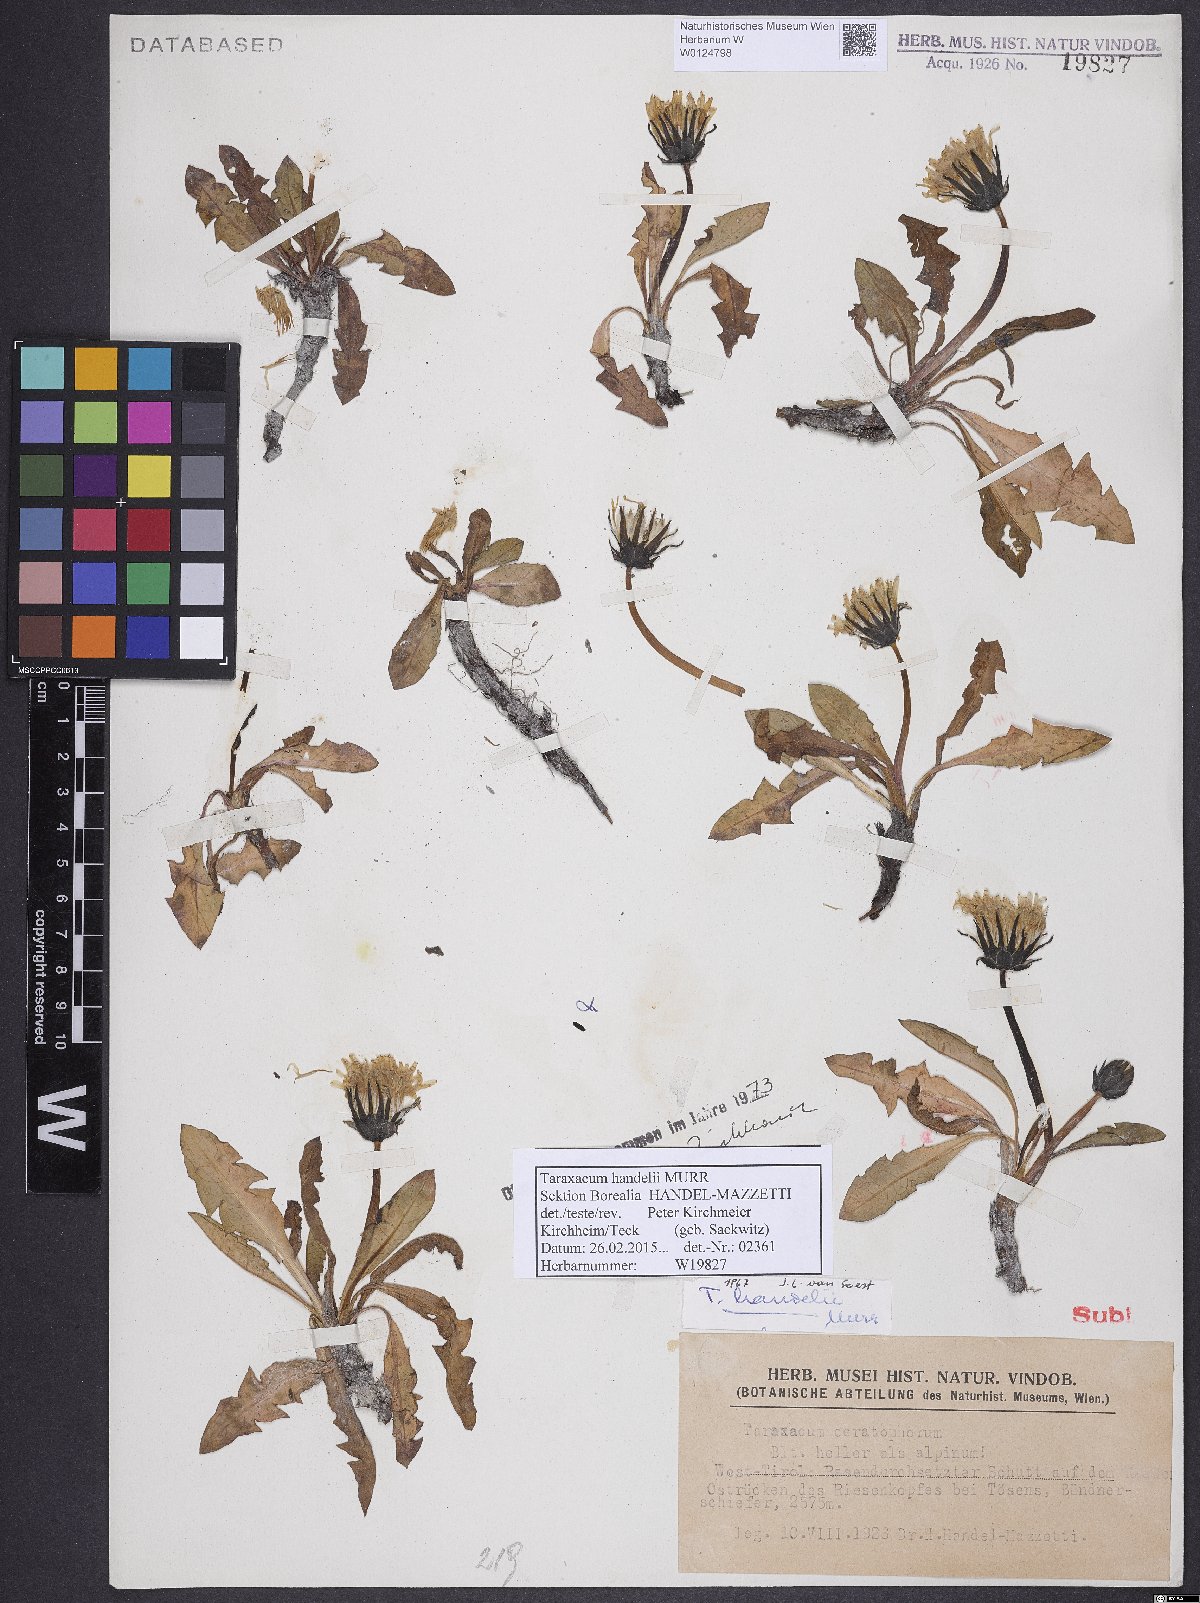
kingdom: Plantae
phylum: Tracheophyta
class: Magnoliopsida
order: Asterales
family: Asteraceae
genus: Taraxacum
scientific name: Taraxacum handelii
